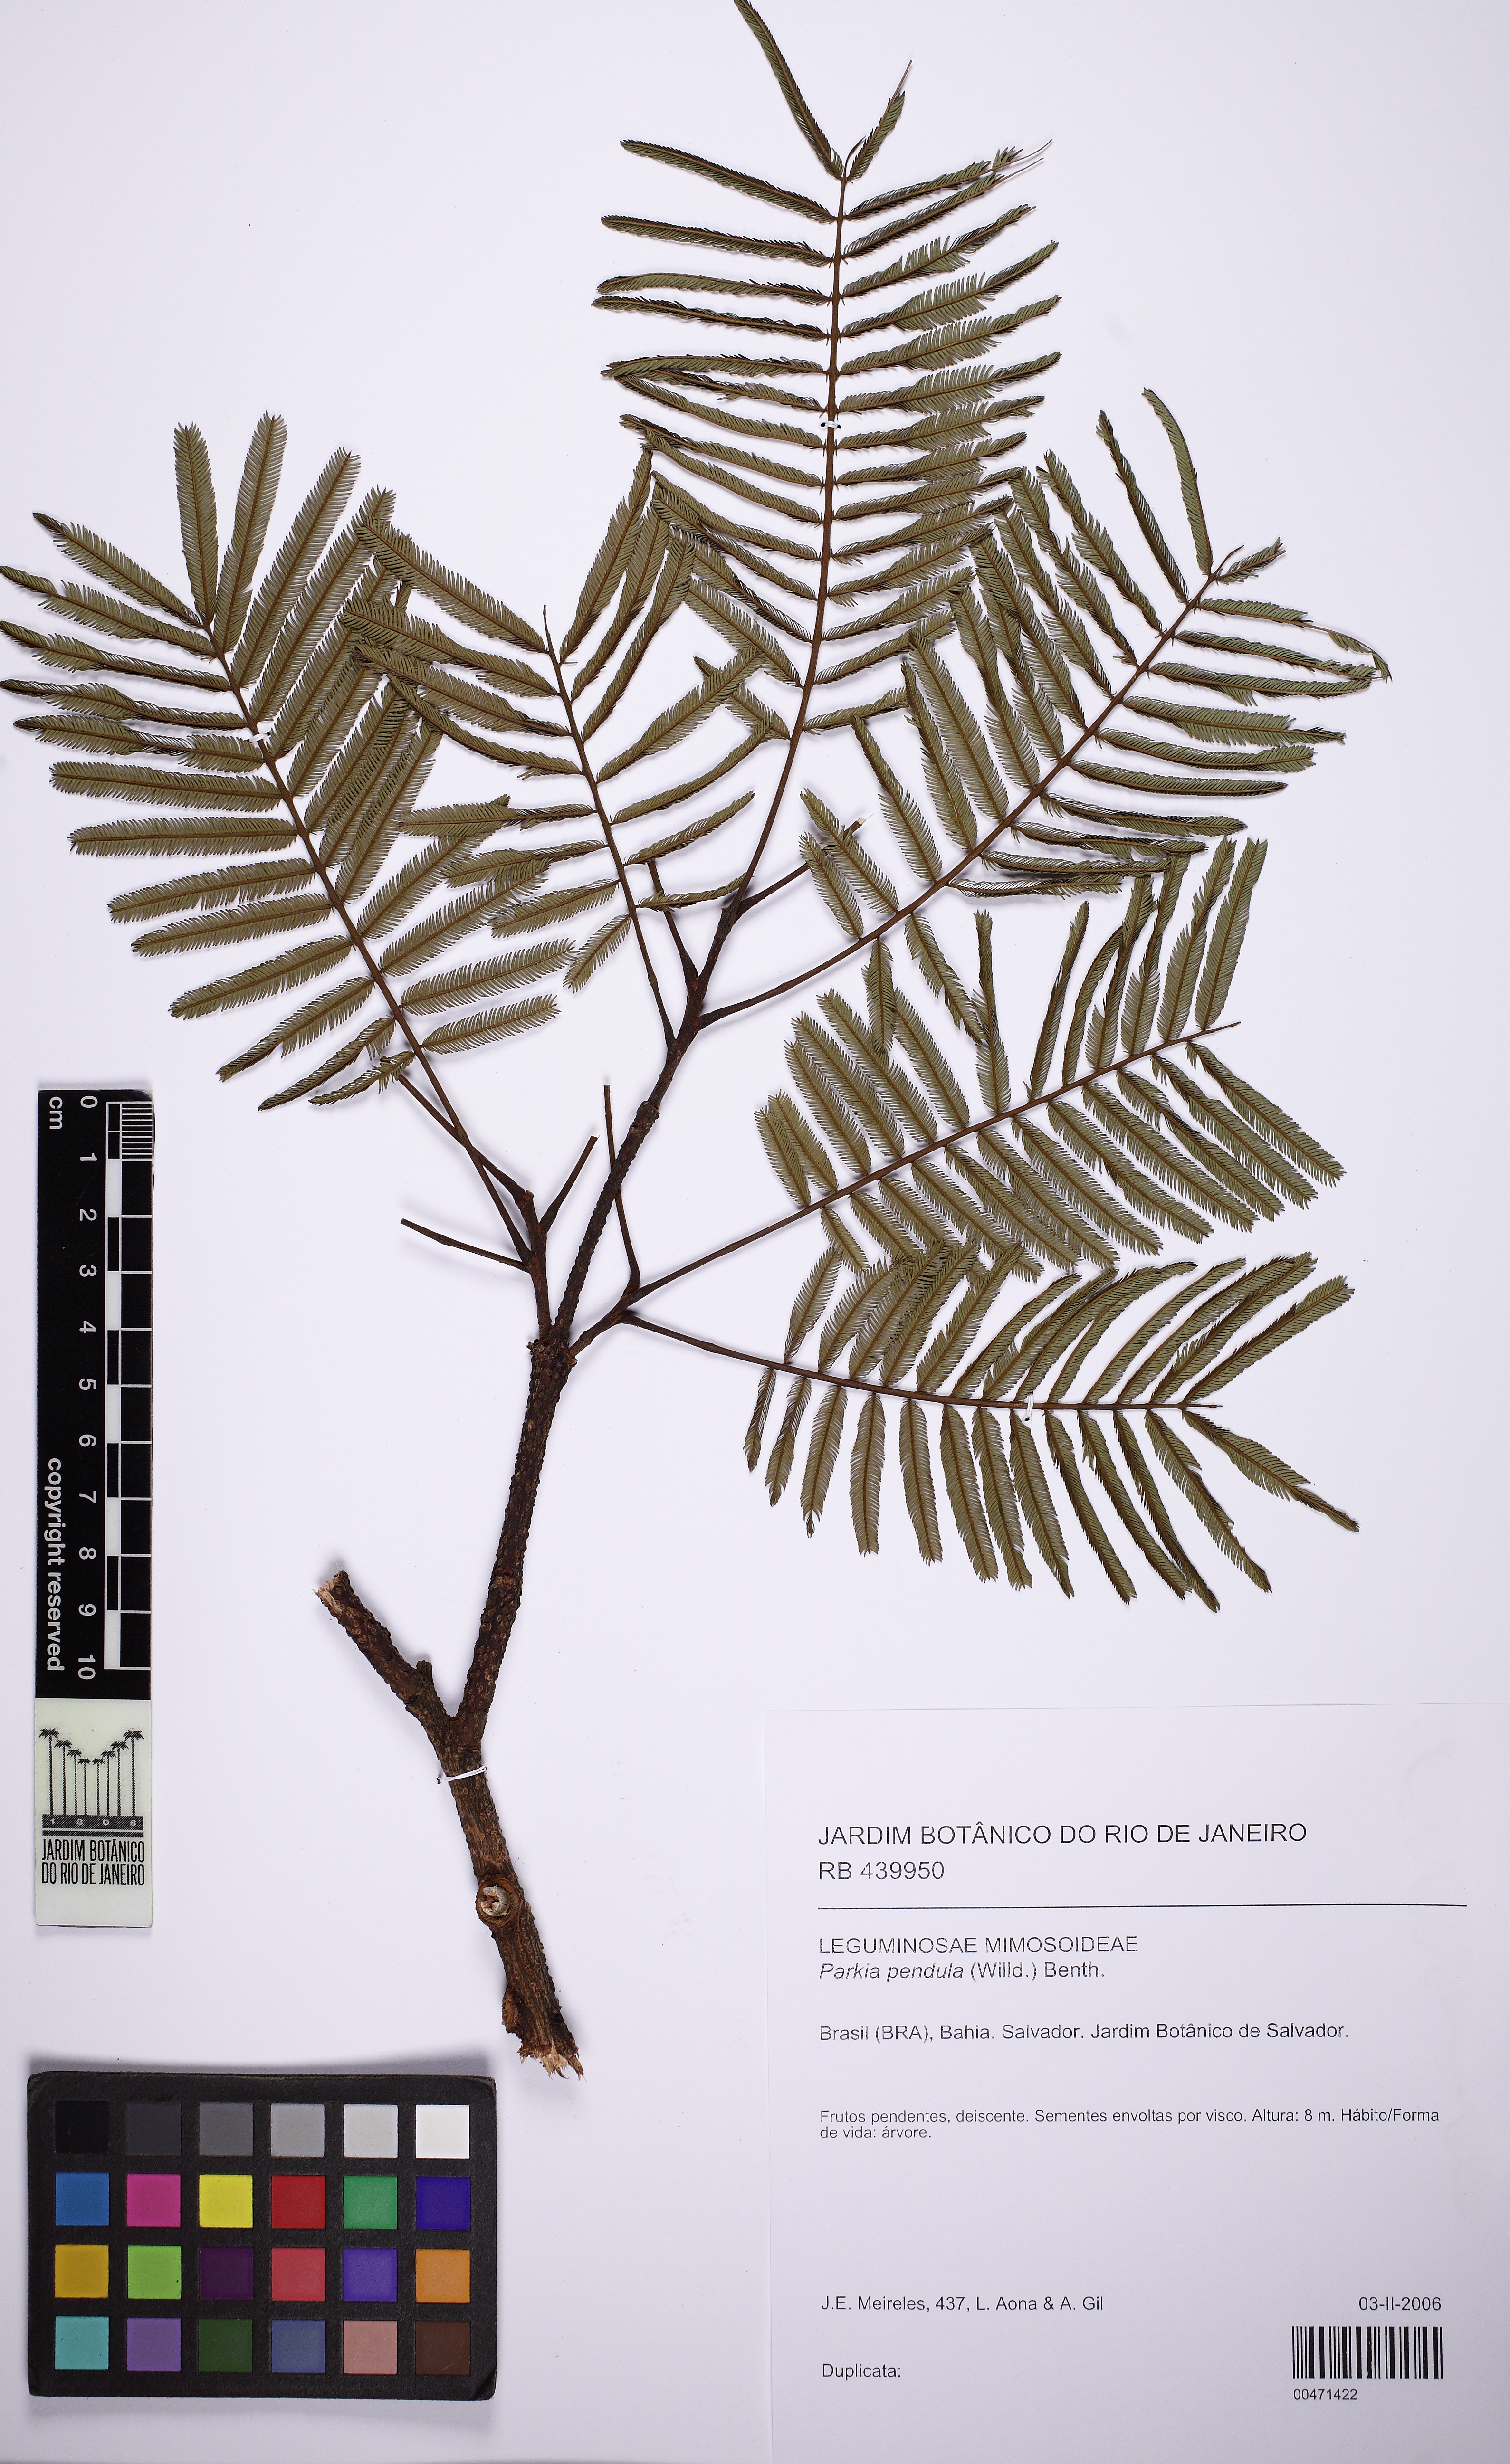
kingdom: Plantae
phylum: Tracheophyta
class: Magnoliopsida
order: Fabales
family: Fabaceae
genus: Parkia
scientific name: Parkia pendula
